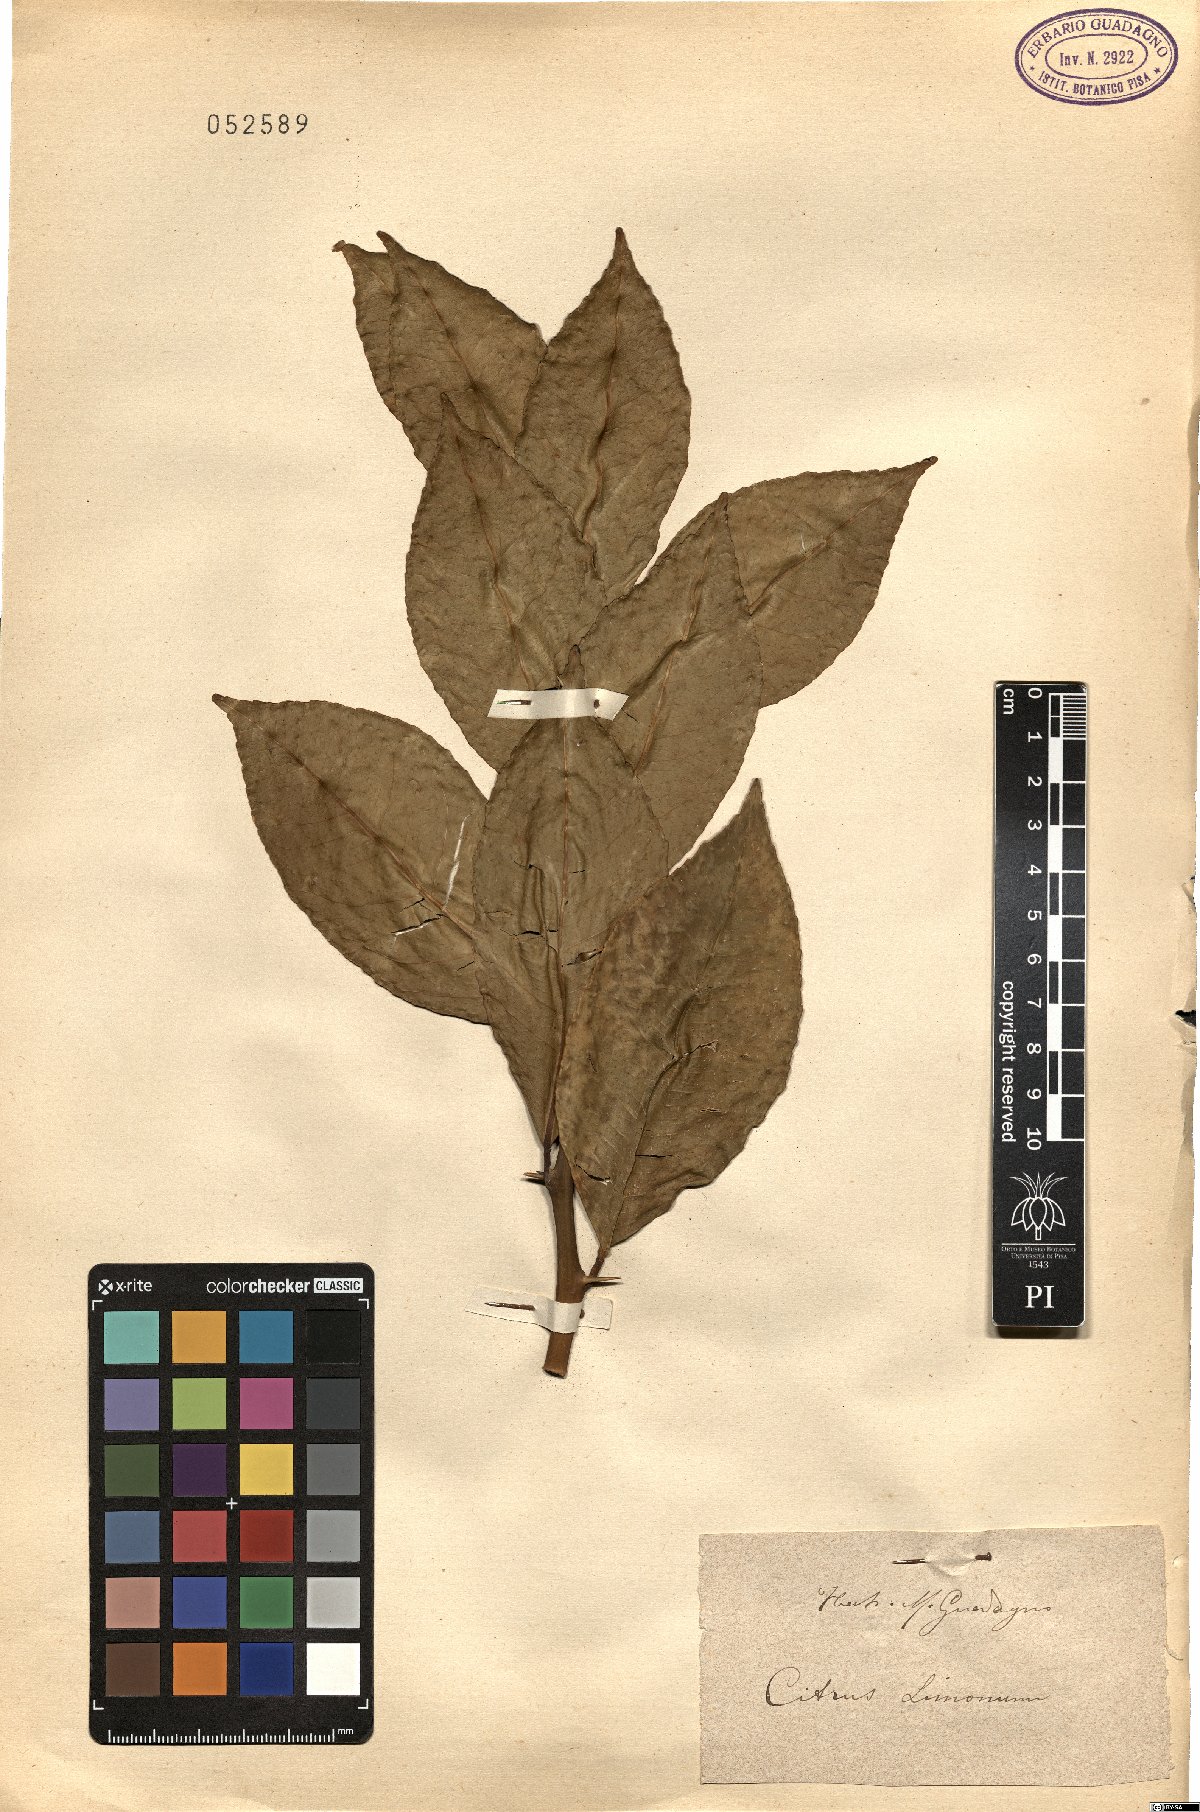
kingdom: Plantae
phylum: Tracheophyta
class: Magnoliopsida
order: Sapindales
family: Rutaceae
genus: Citrus
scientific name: Citrus limon
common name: Lemon
